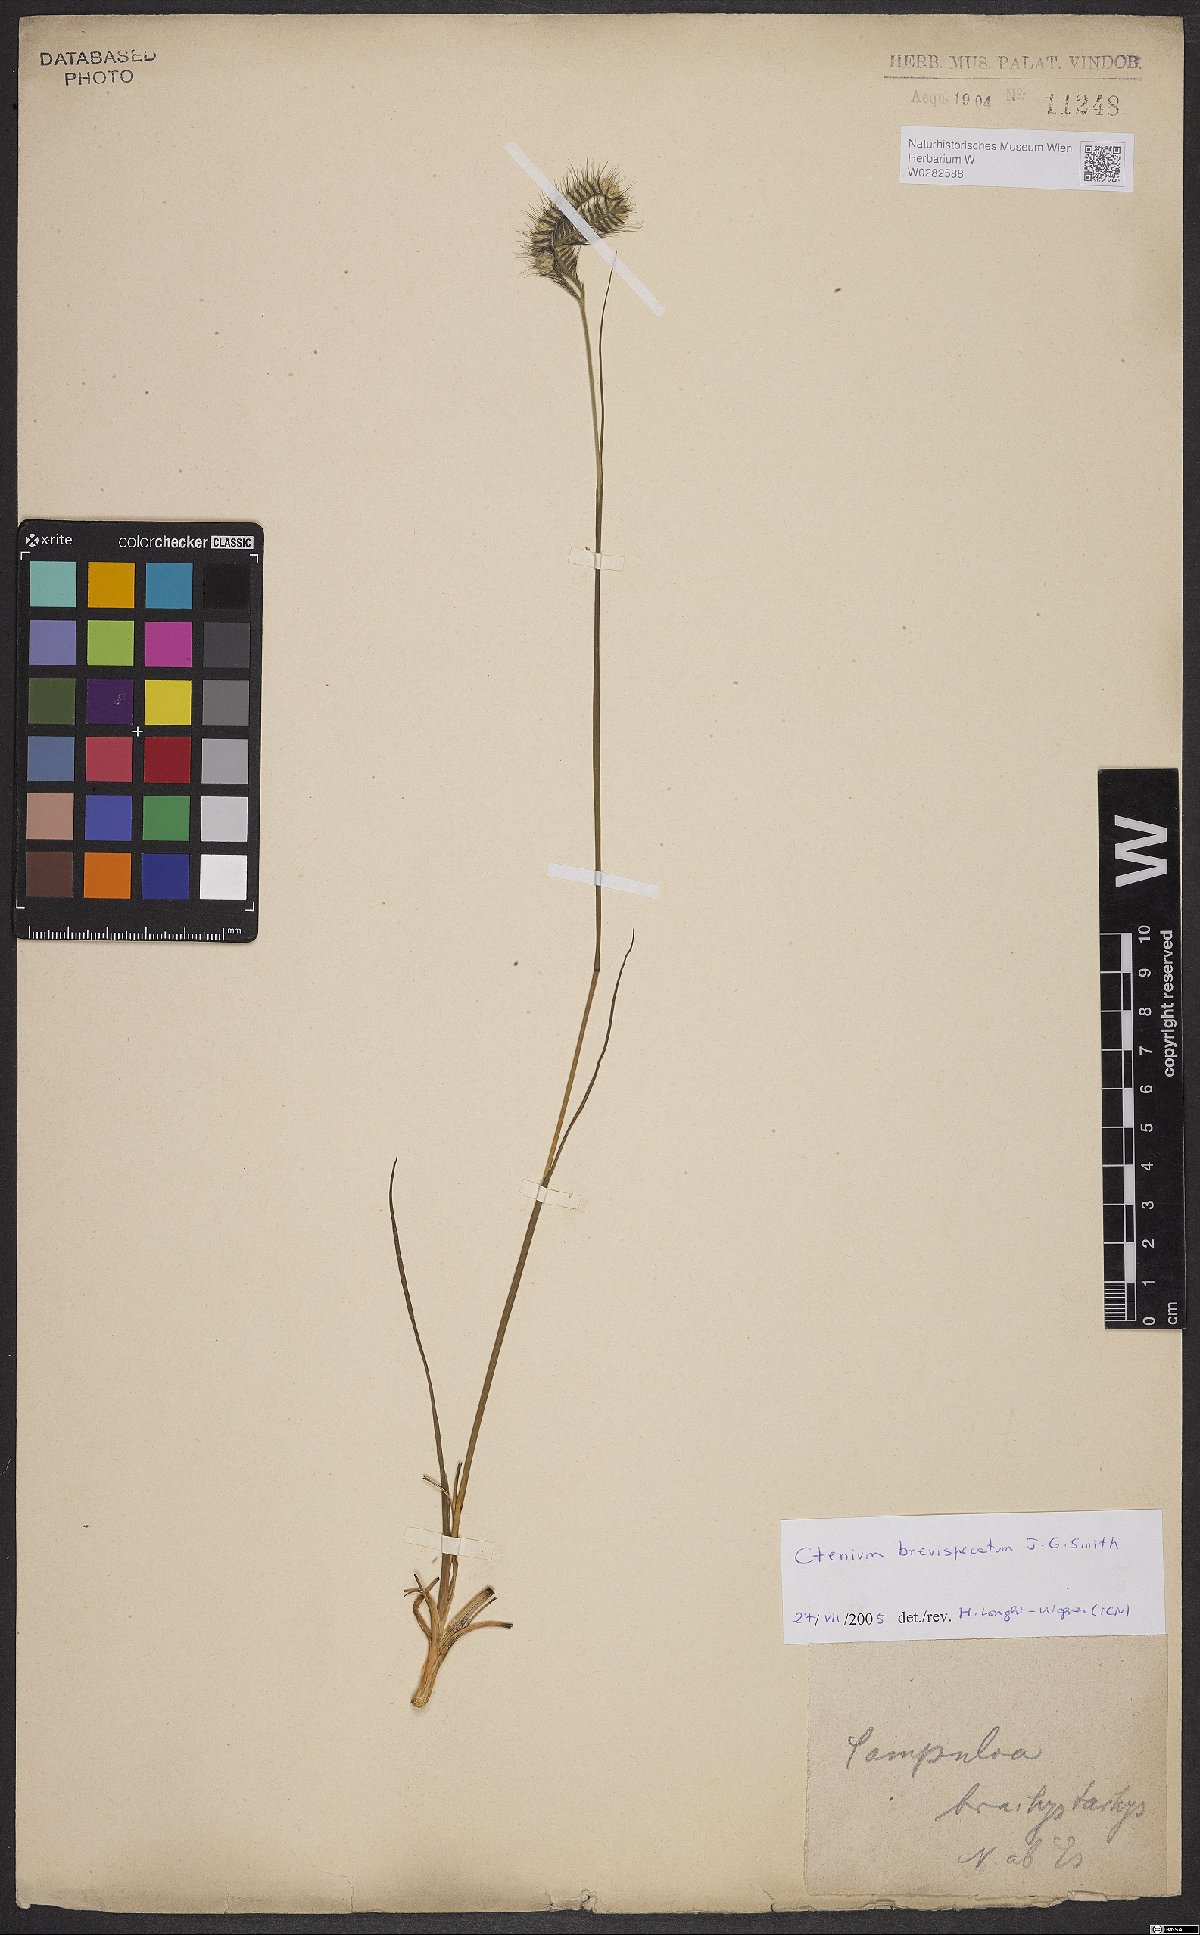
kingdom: Plantae
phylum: Tracheophyta
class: Liliopsida
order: Poales
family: Poaceae
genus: Ctenium
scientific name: Ctenium brevispicatum
